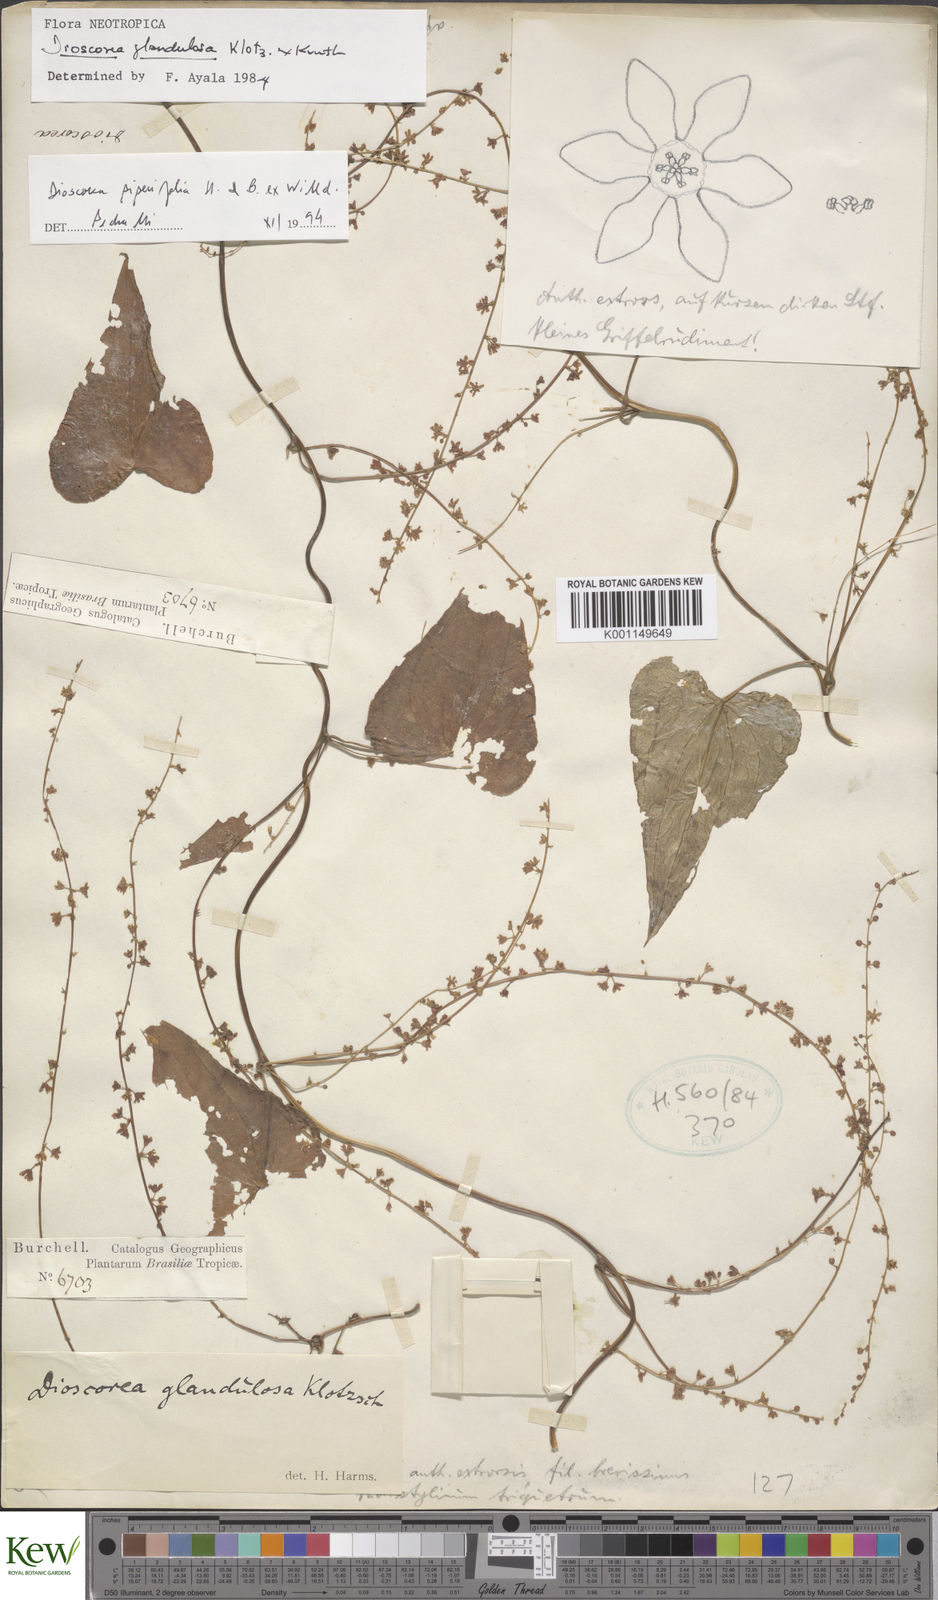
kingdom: Plantae
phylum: Tracheophyta
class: Liliopsida
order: Dioscoreales
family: Dioscoreaceae
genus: Dioscorea
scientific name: Dioscorea glandulosa
